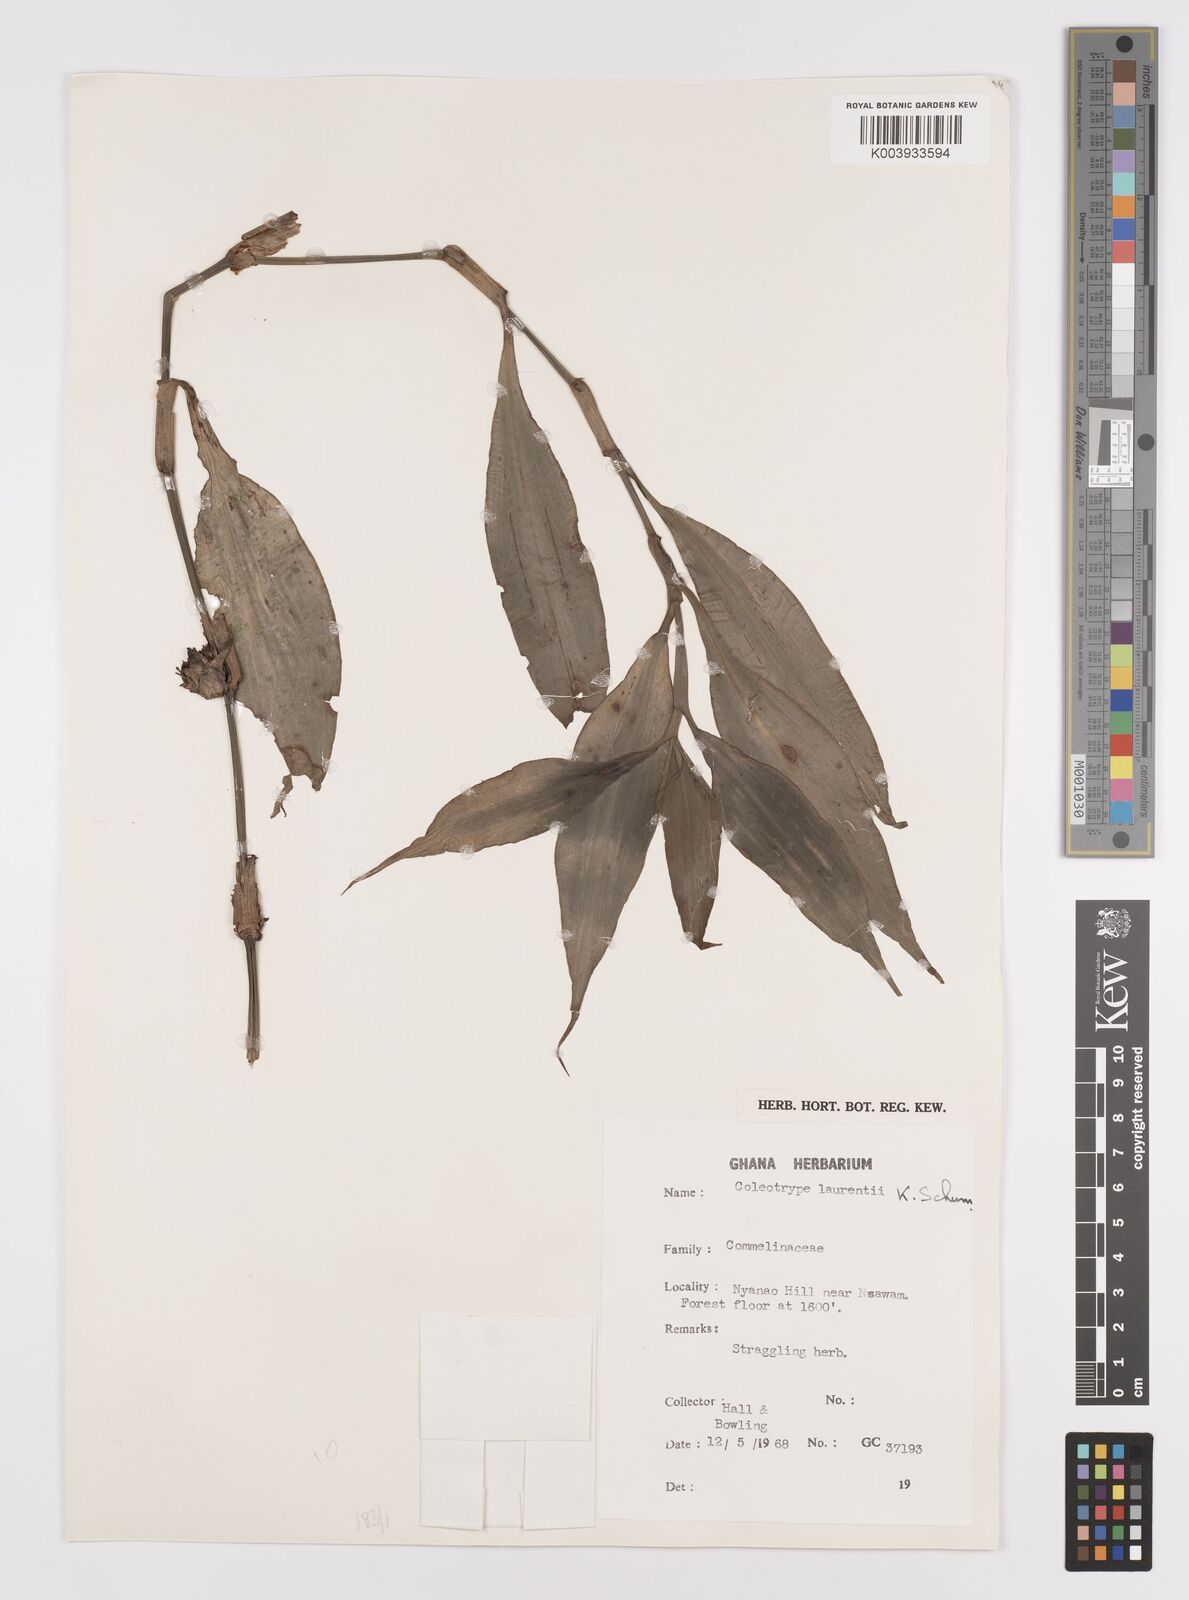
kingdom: Plantae
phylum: Tracheophyta
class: Liliopsida
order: Commelinales
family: Commelinaceae
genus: Coleotrype
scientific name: Coleotrype laurentii
